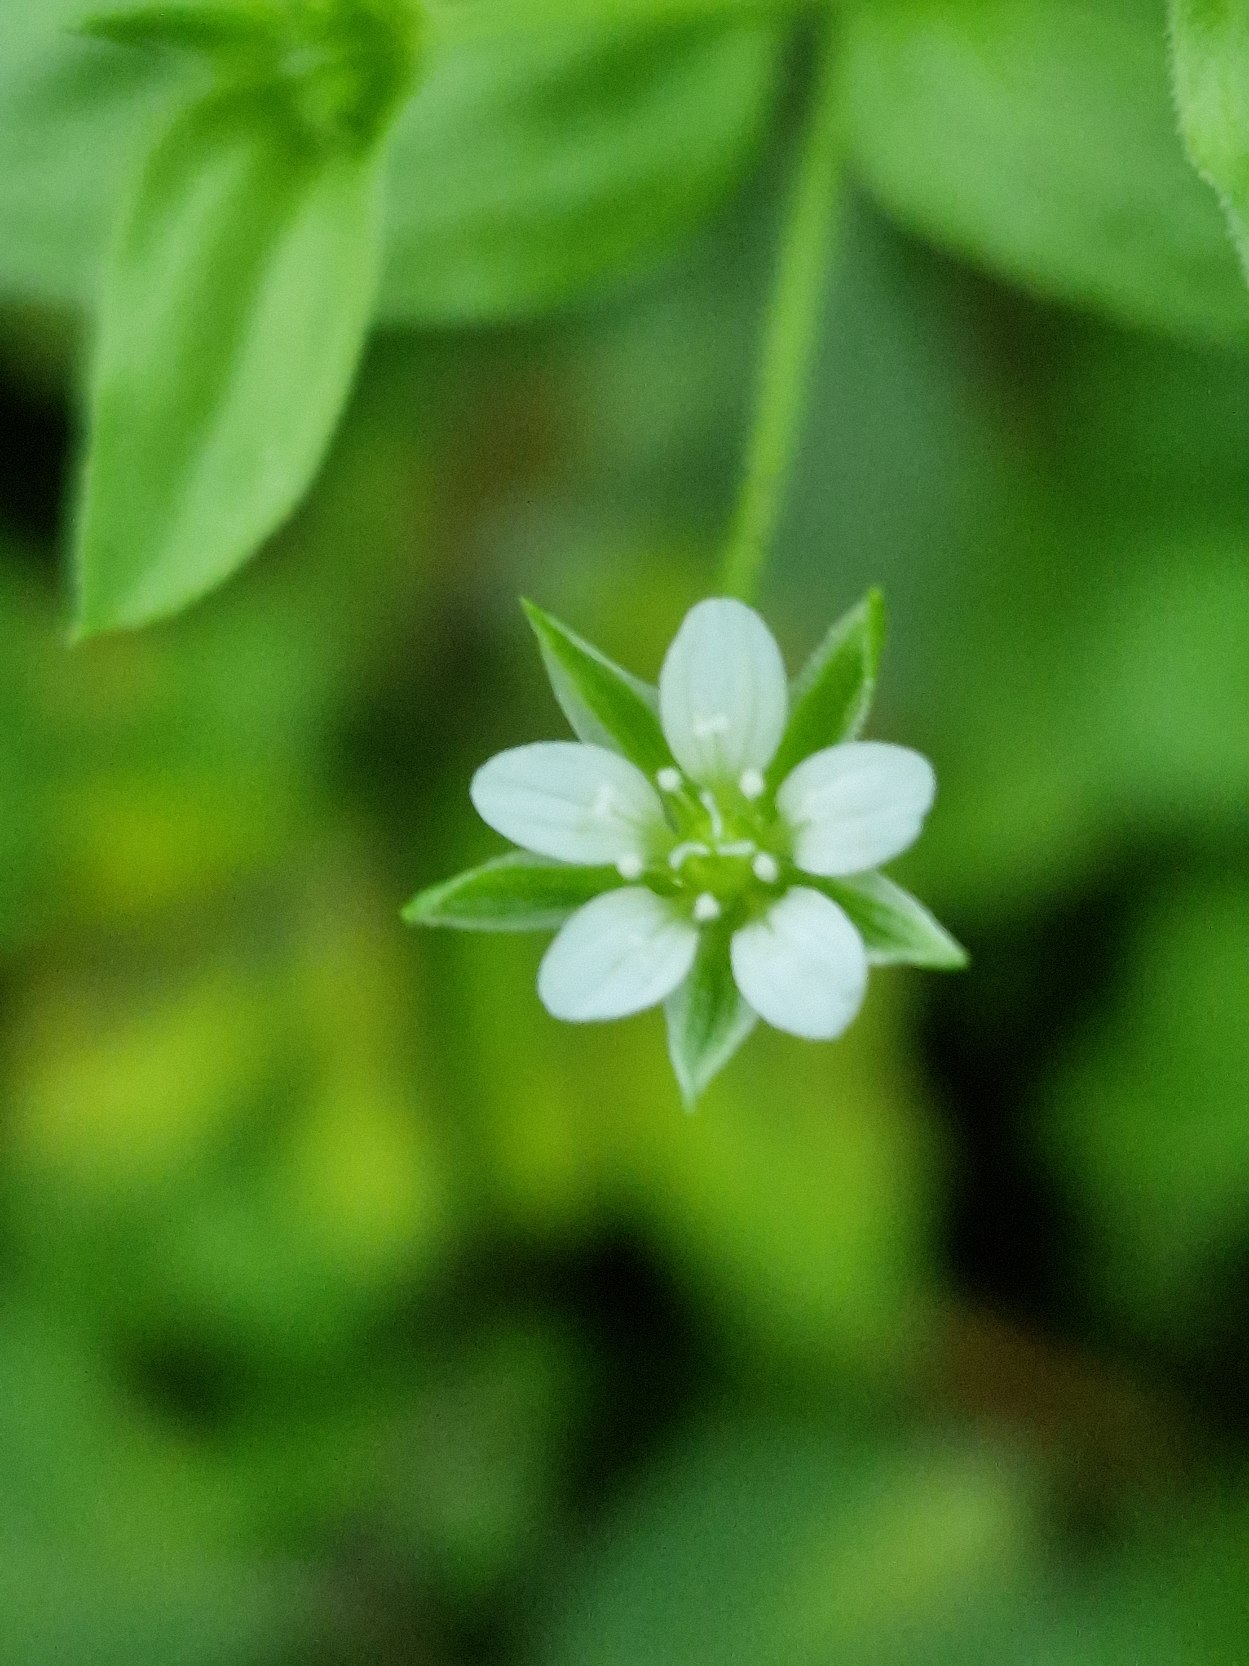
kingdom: Plantae
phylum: Tracheophyta
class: Magnoliopsida
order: Caryophyllales
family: Caryophyllaceae
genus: Moehringia
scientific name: Moehringia trinervia
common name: Skovarve
